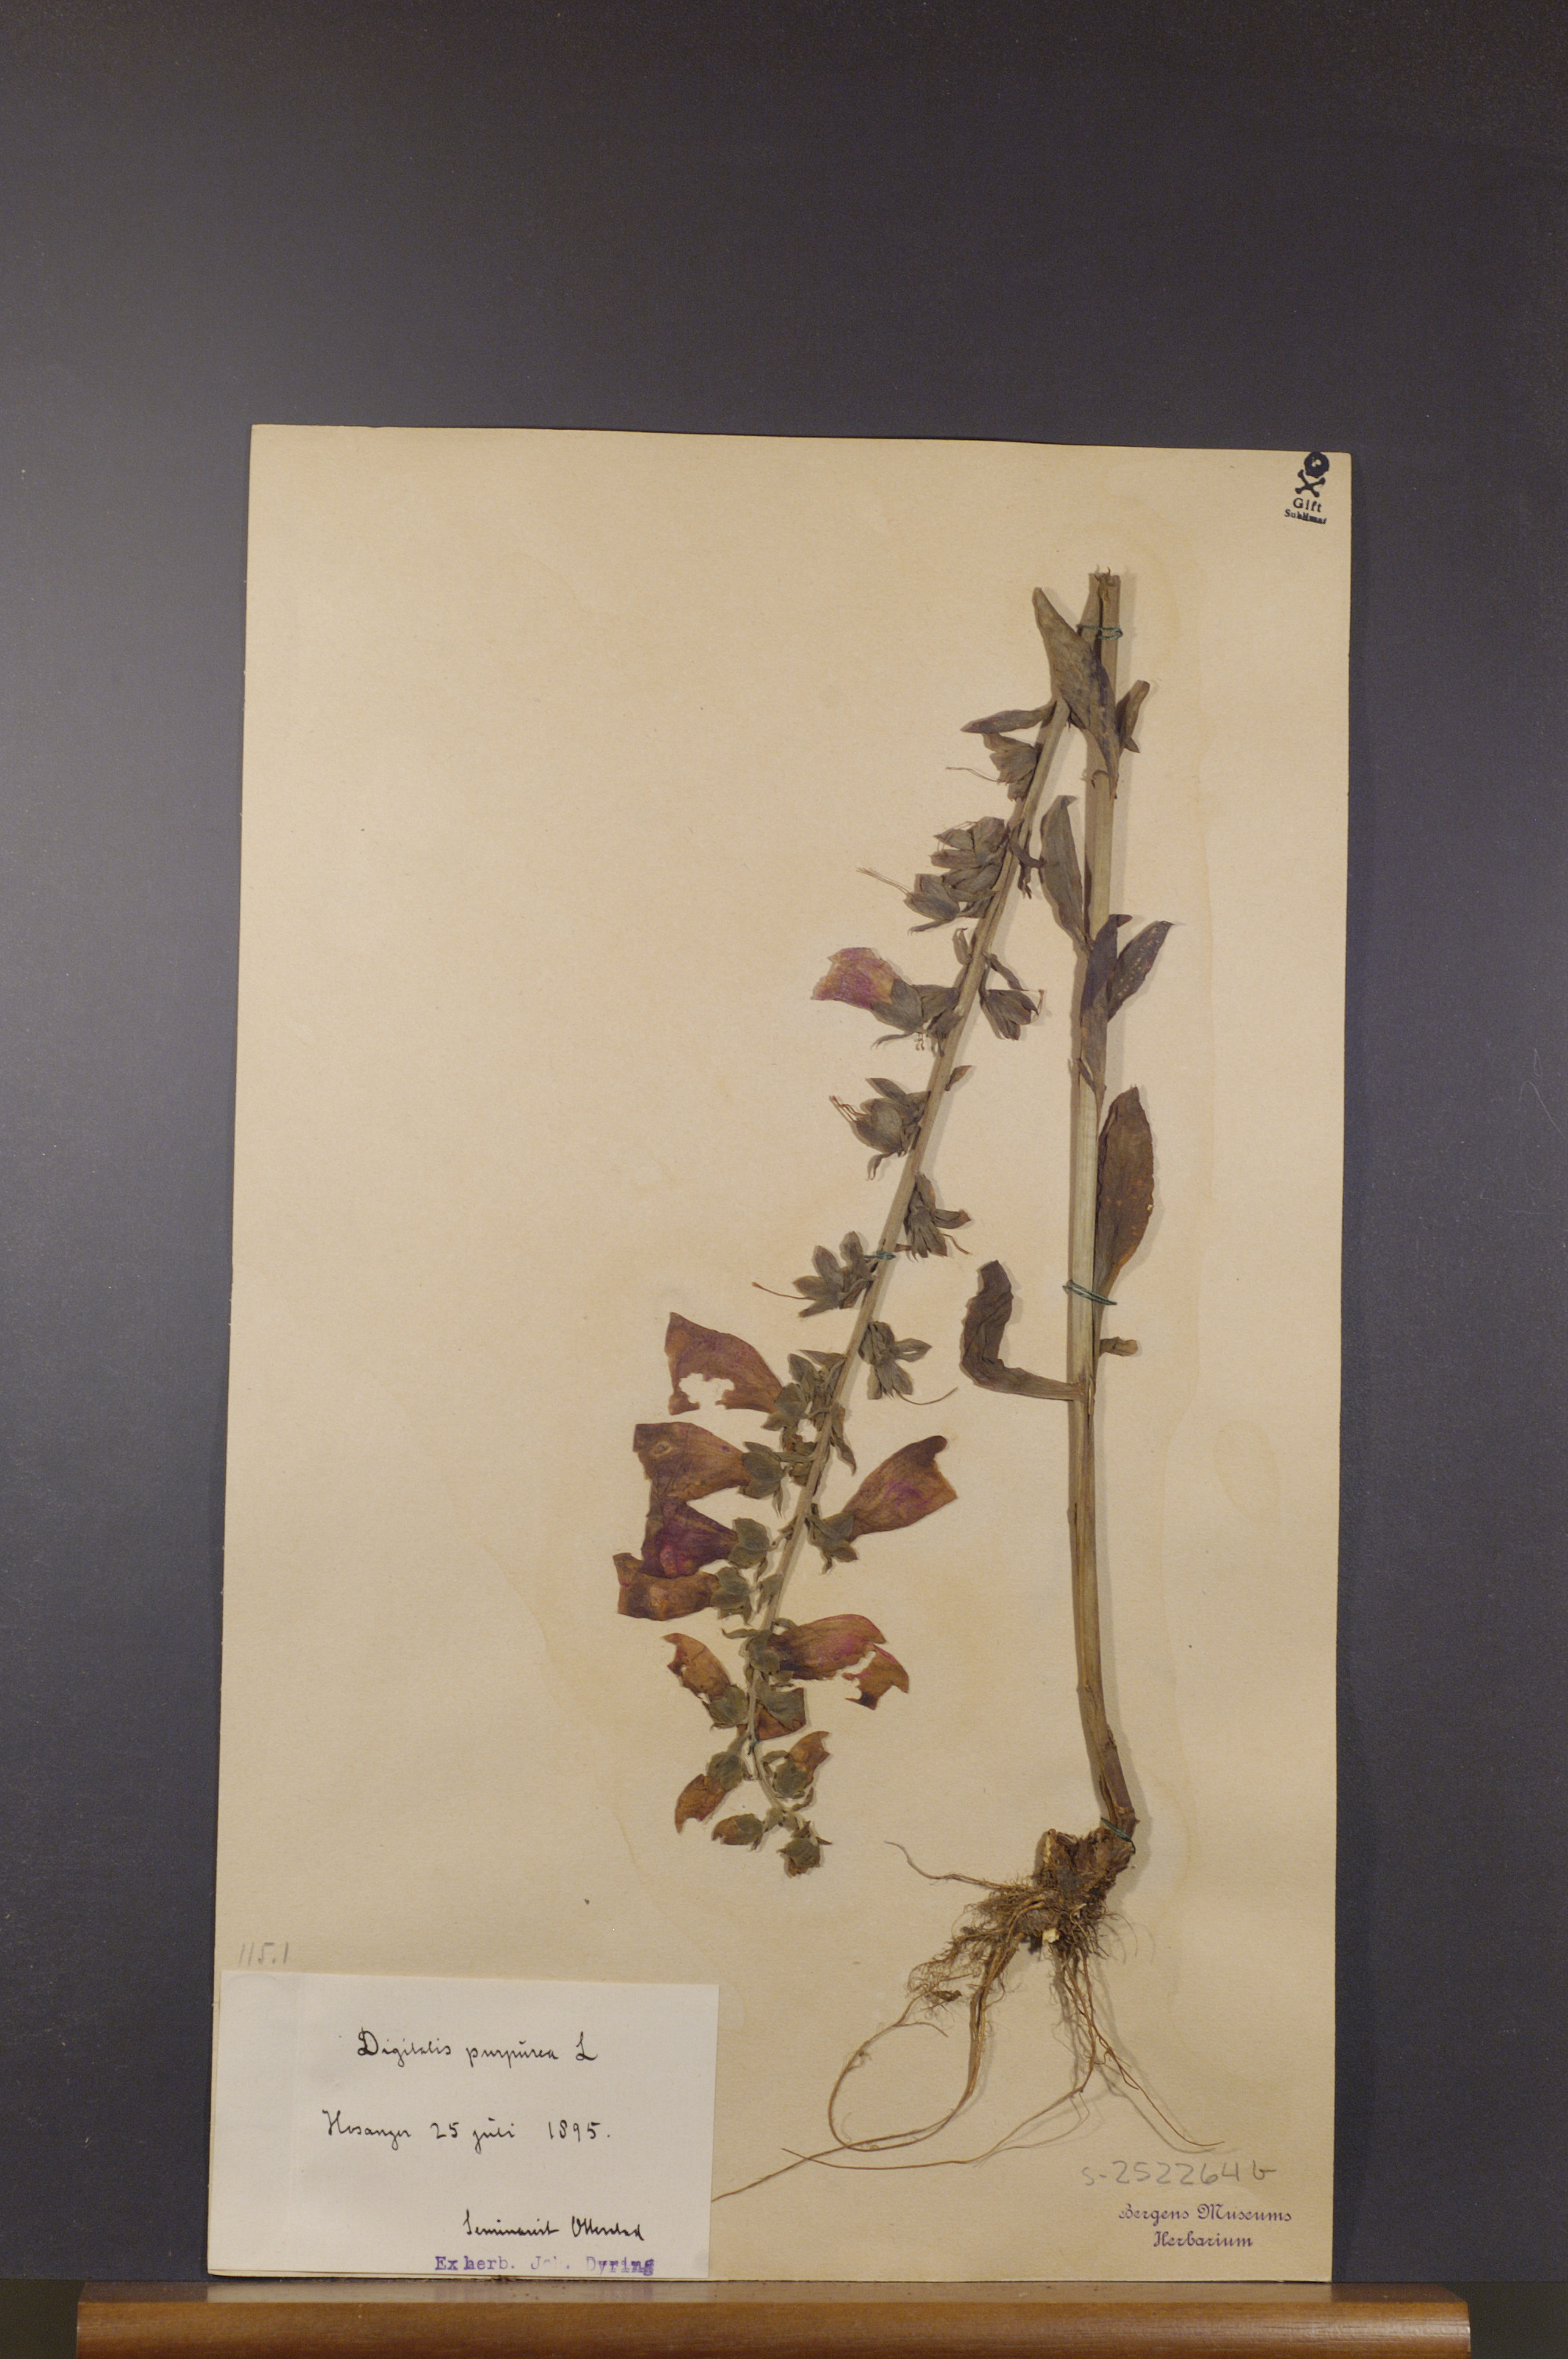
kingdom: Plantae
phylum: Tracheophyta
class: Magnoliopsida
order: Lamiales
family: Plantaginaceae
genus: Digitalis
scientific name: Digitalis purpurea
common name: Foxglove
